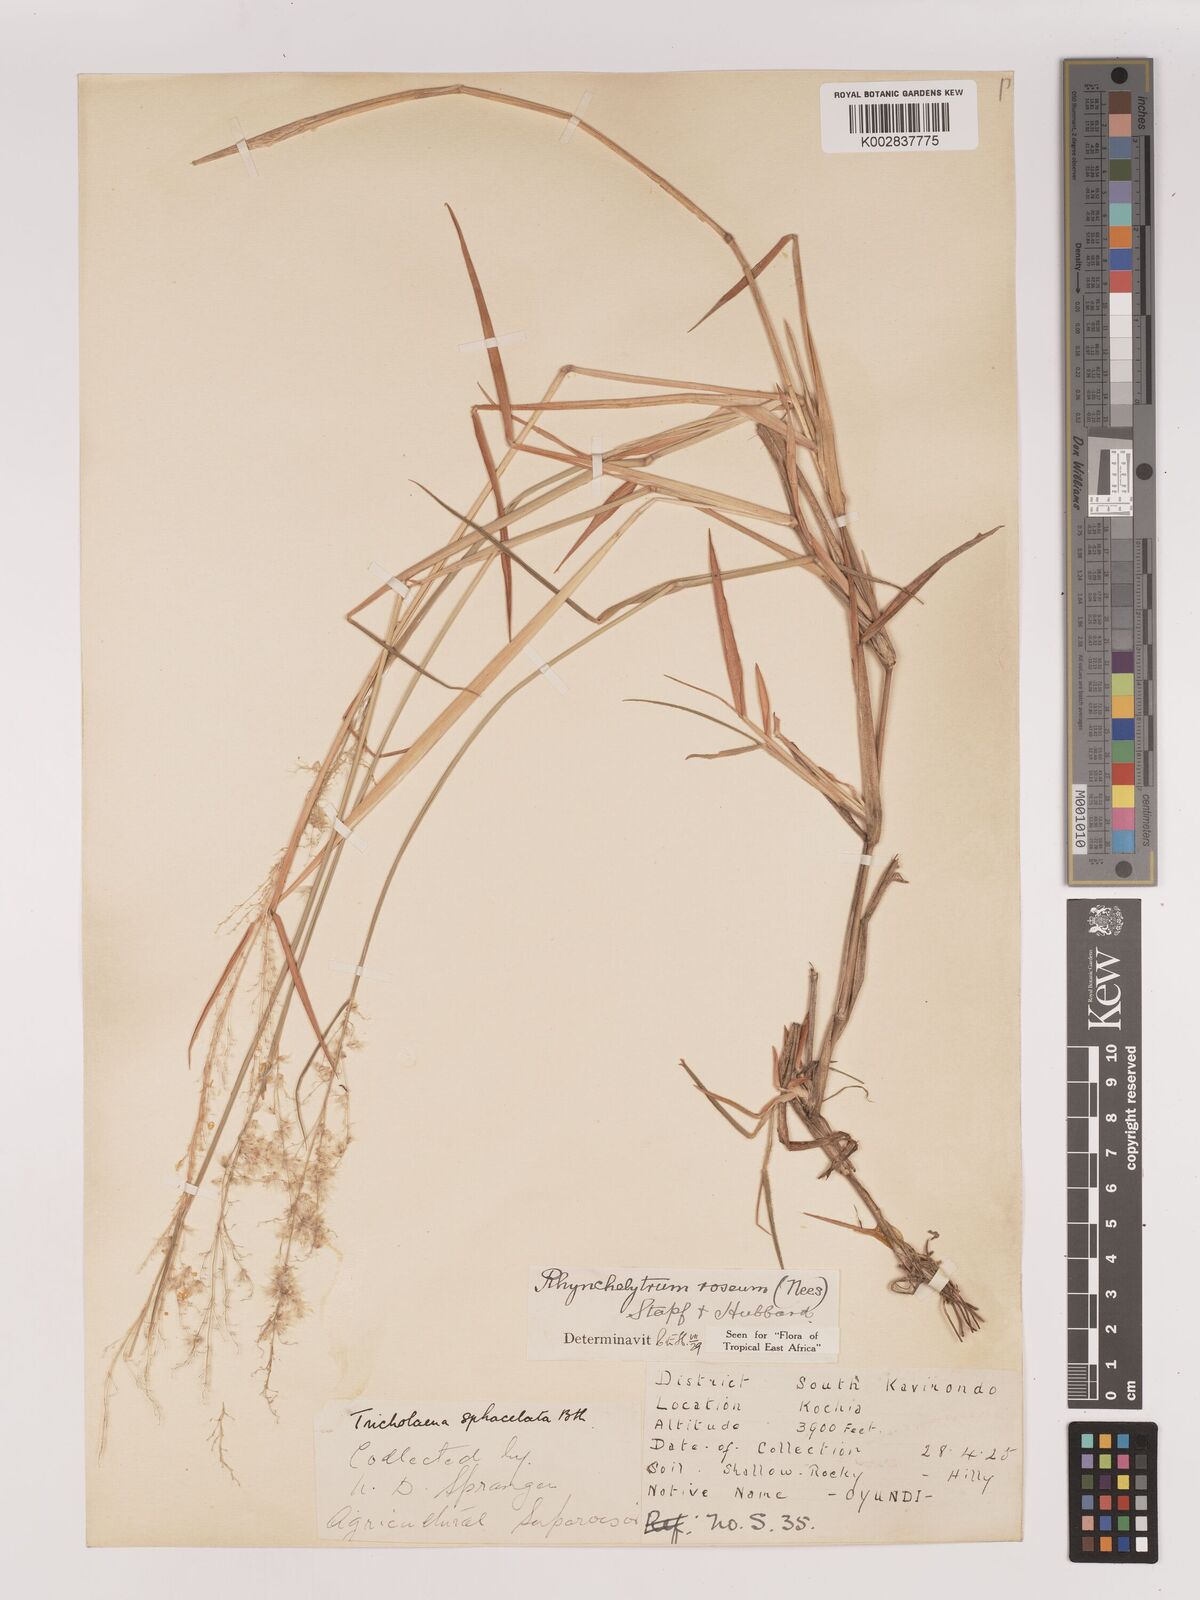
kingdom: Plantae
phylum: Tracheophyta
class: Liliopsida
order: Poales
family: Poaceae
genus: Melinis
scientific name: Melinis repens
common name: Rose natal grass
